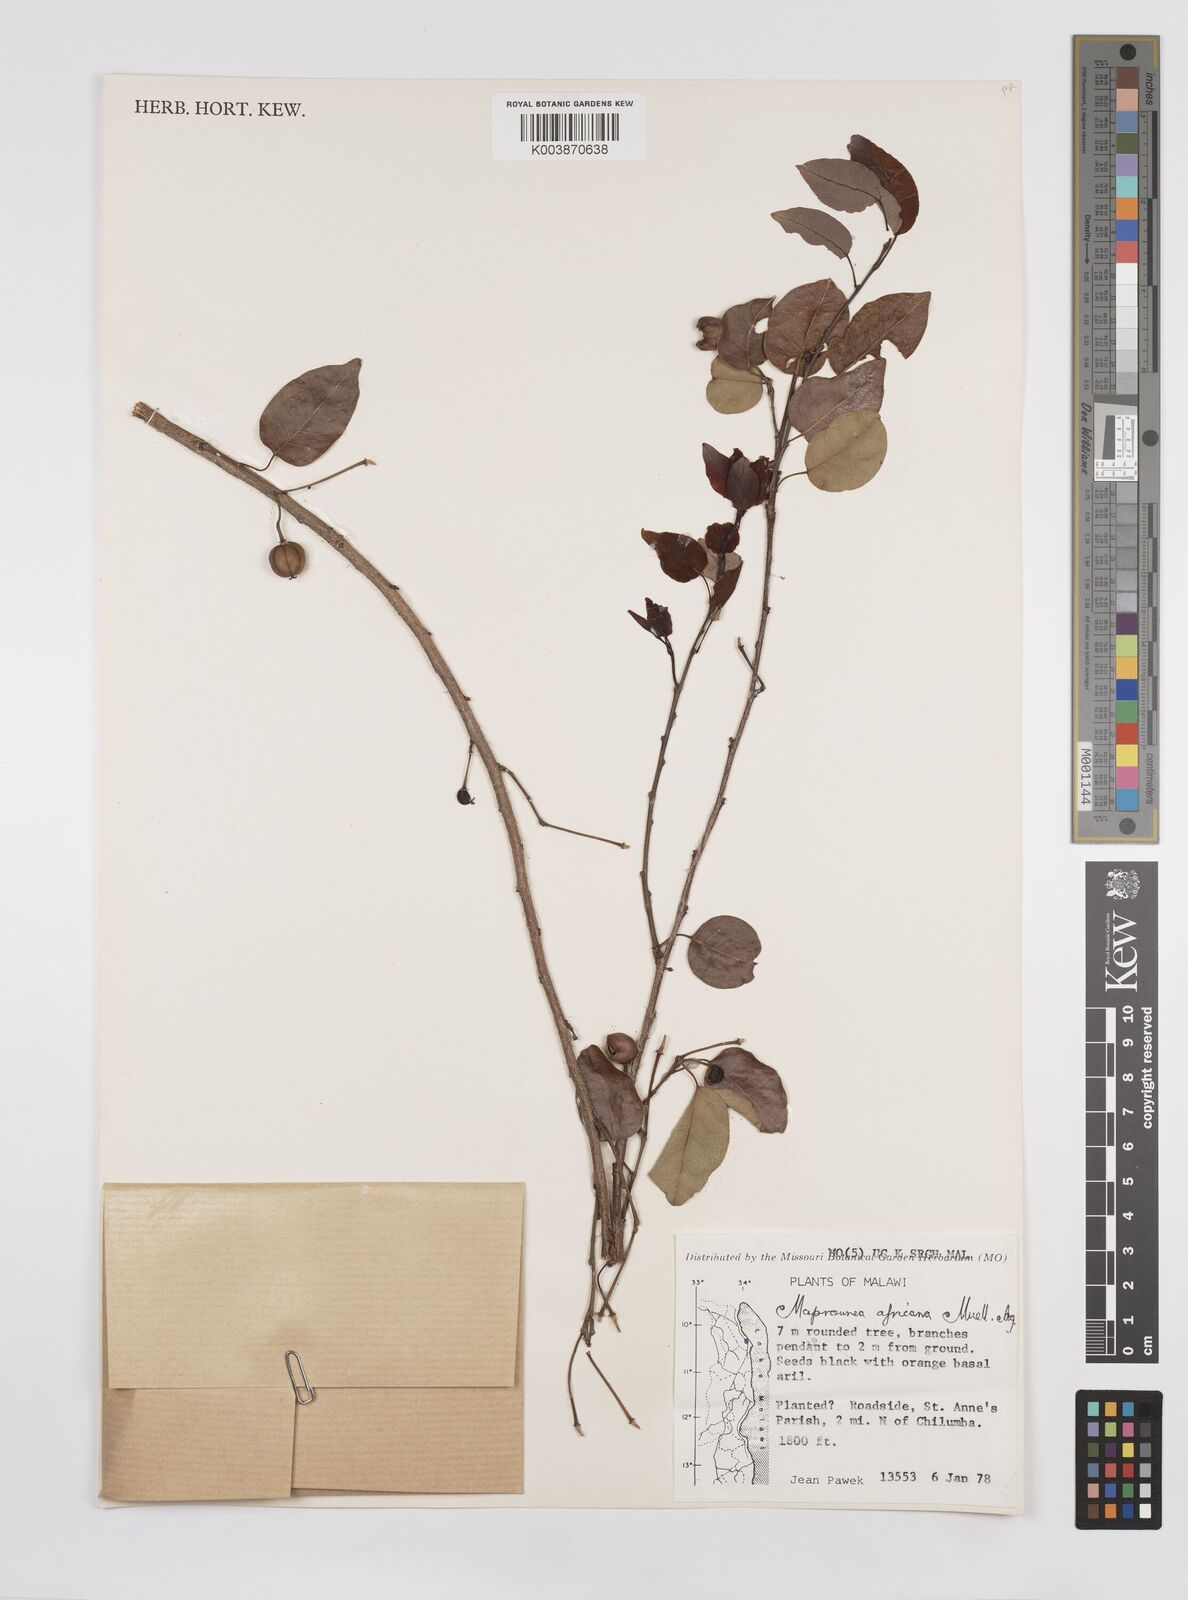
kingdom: Plantae
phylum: Tracheophyta
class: Magnoliopsida
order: Malpighiales
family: Euphorbiaceae
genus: Maprounea
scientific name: Maprounea africana
